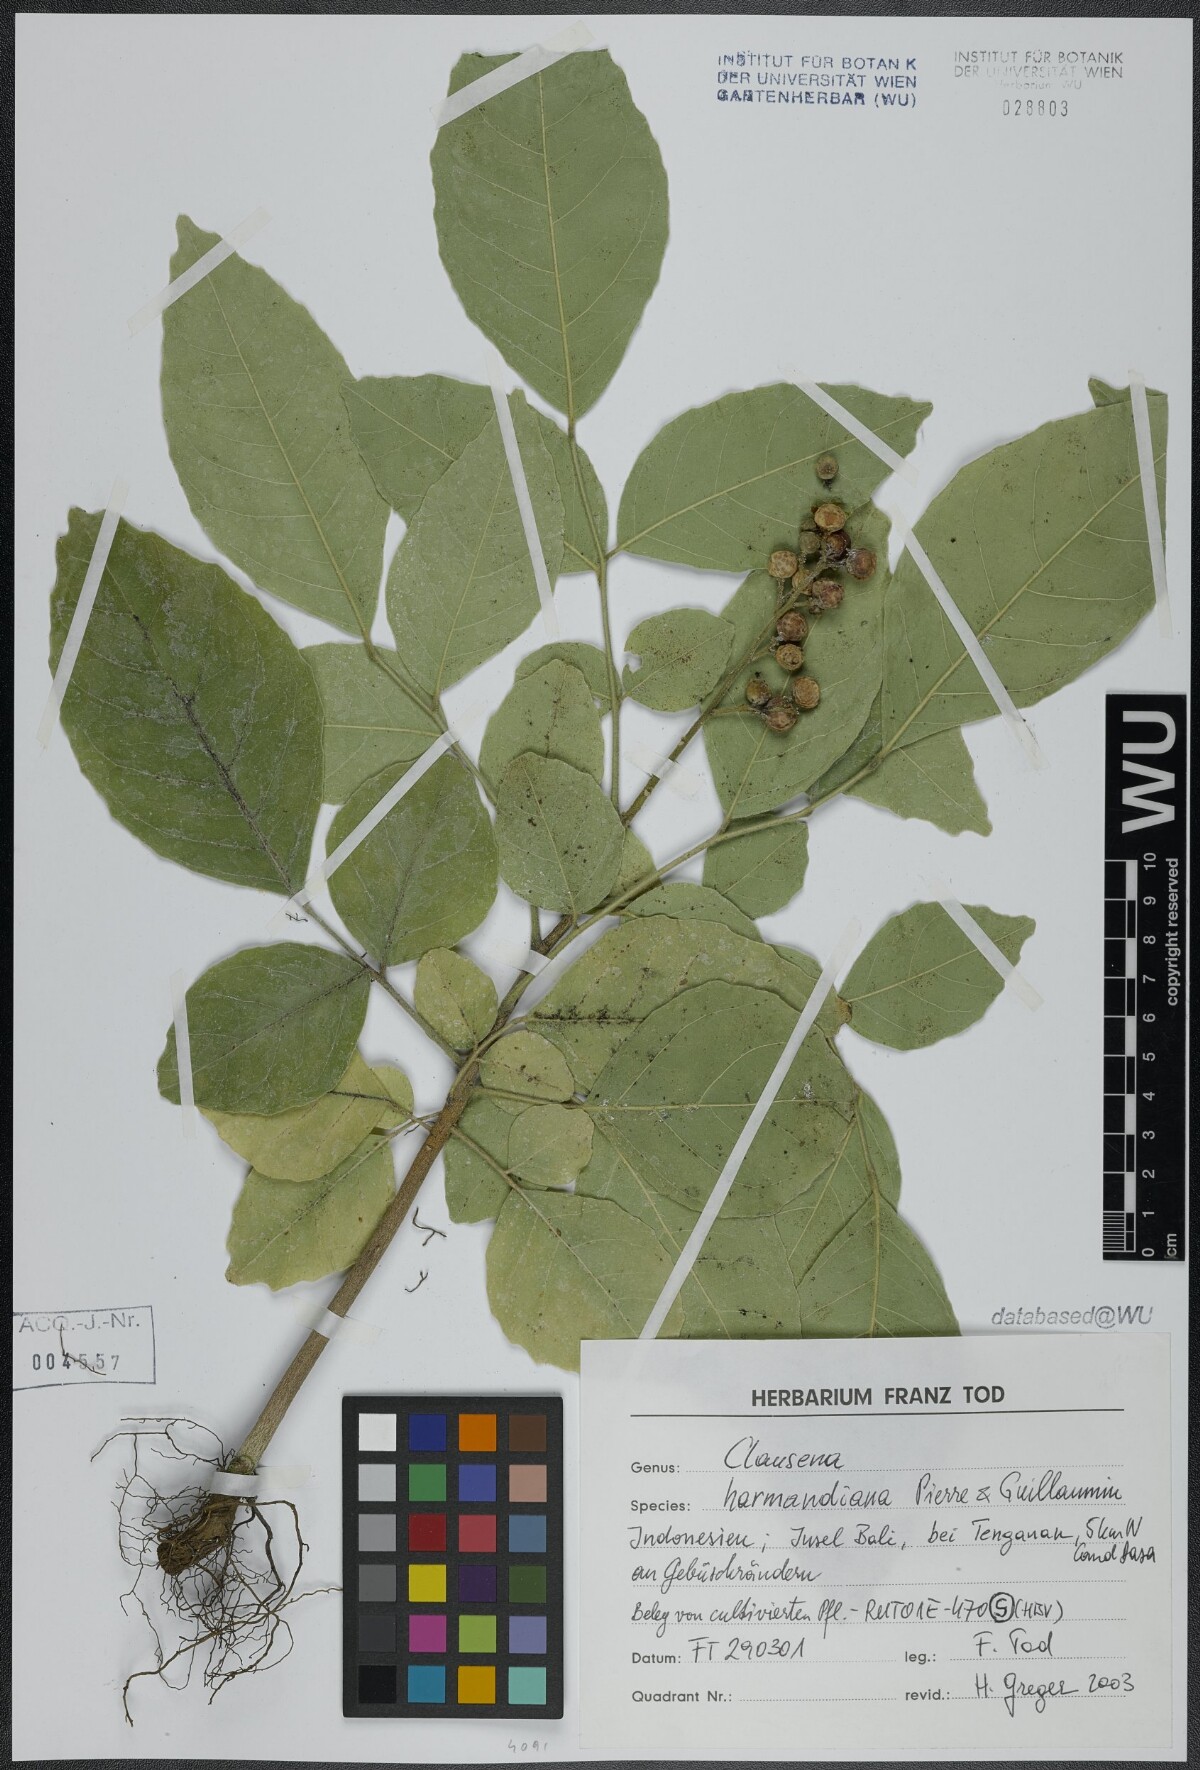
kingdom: Plantae
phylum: Tracheophyta
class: Magnoliopsida
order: Sapindales
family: Rutaceae
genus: Clausena
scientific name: Clausena harmandiana
